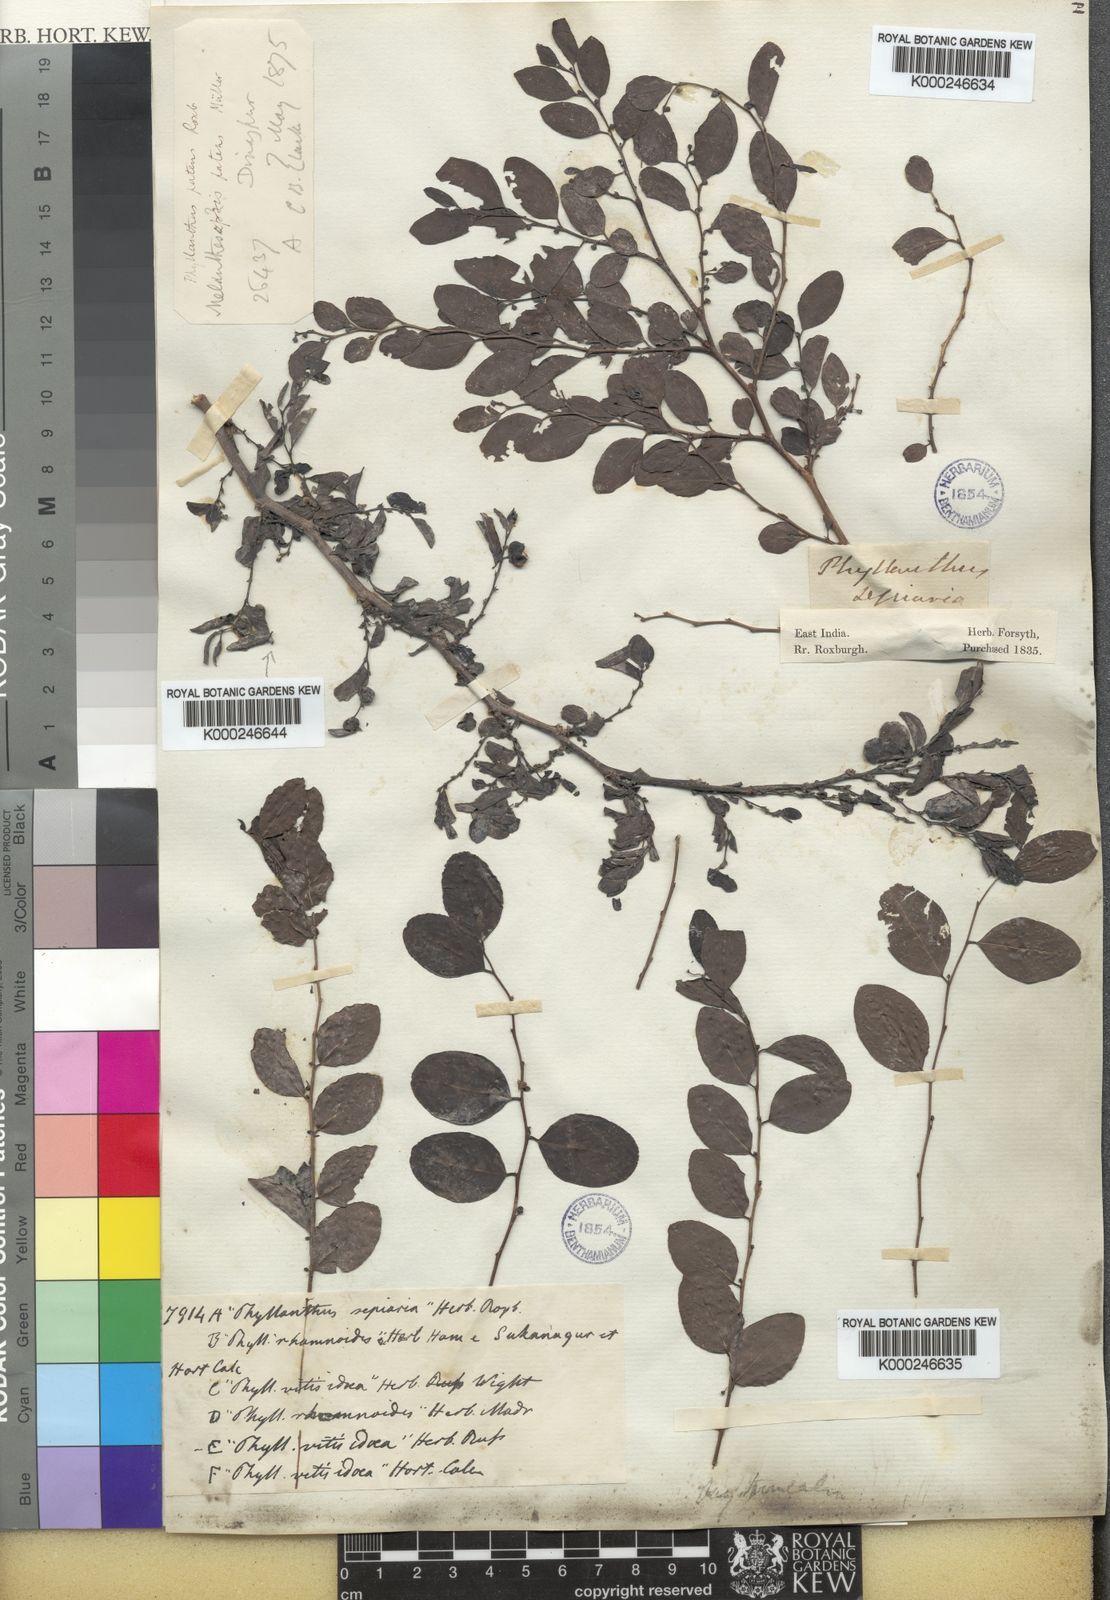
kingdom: Plantae
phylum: Tracheophyta
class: Magnoliopsida
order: Malpighiales
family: Phyllanthaceae
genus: Breynia
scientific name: Breynia retusa
